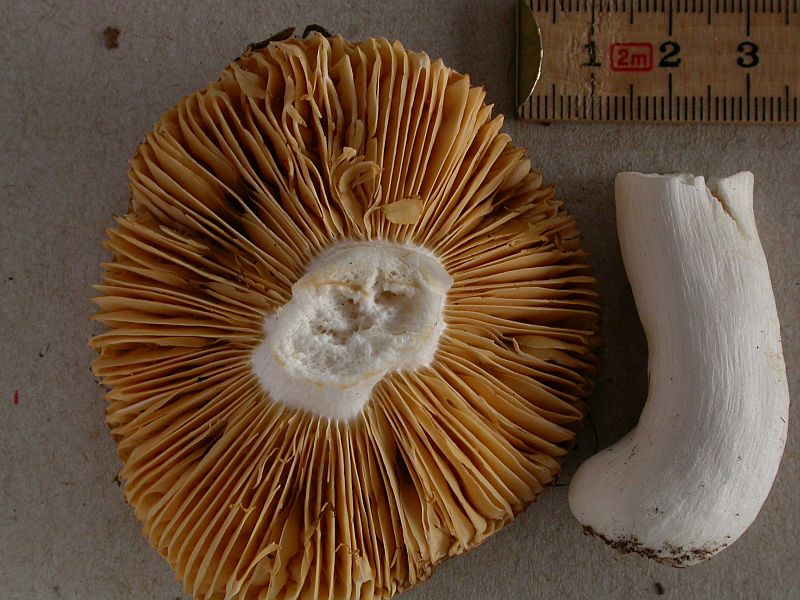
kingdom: Fungi
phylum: Basidiomycota
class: Agaricomycetes
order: Russulales
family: Russulaceae
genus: Russula
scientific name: Russula risigallina
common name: abrikos-skørhat
